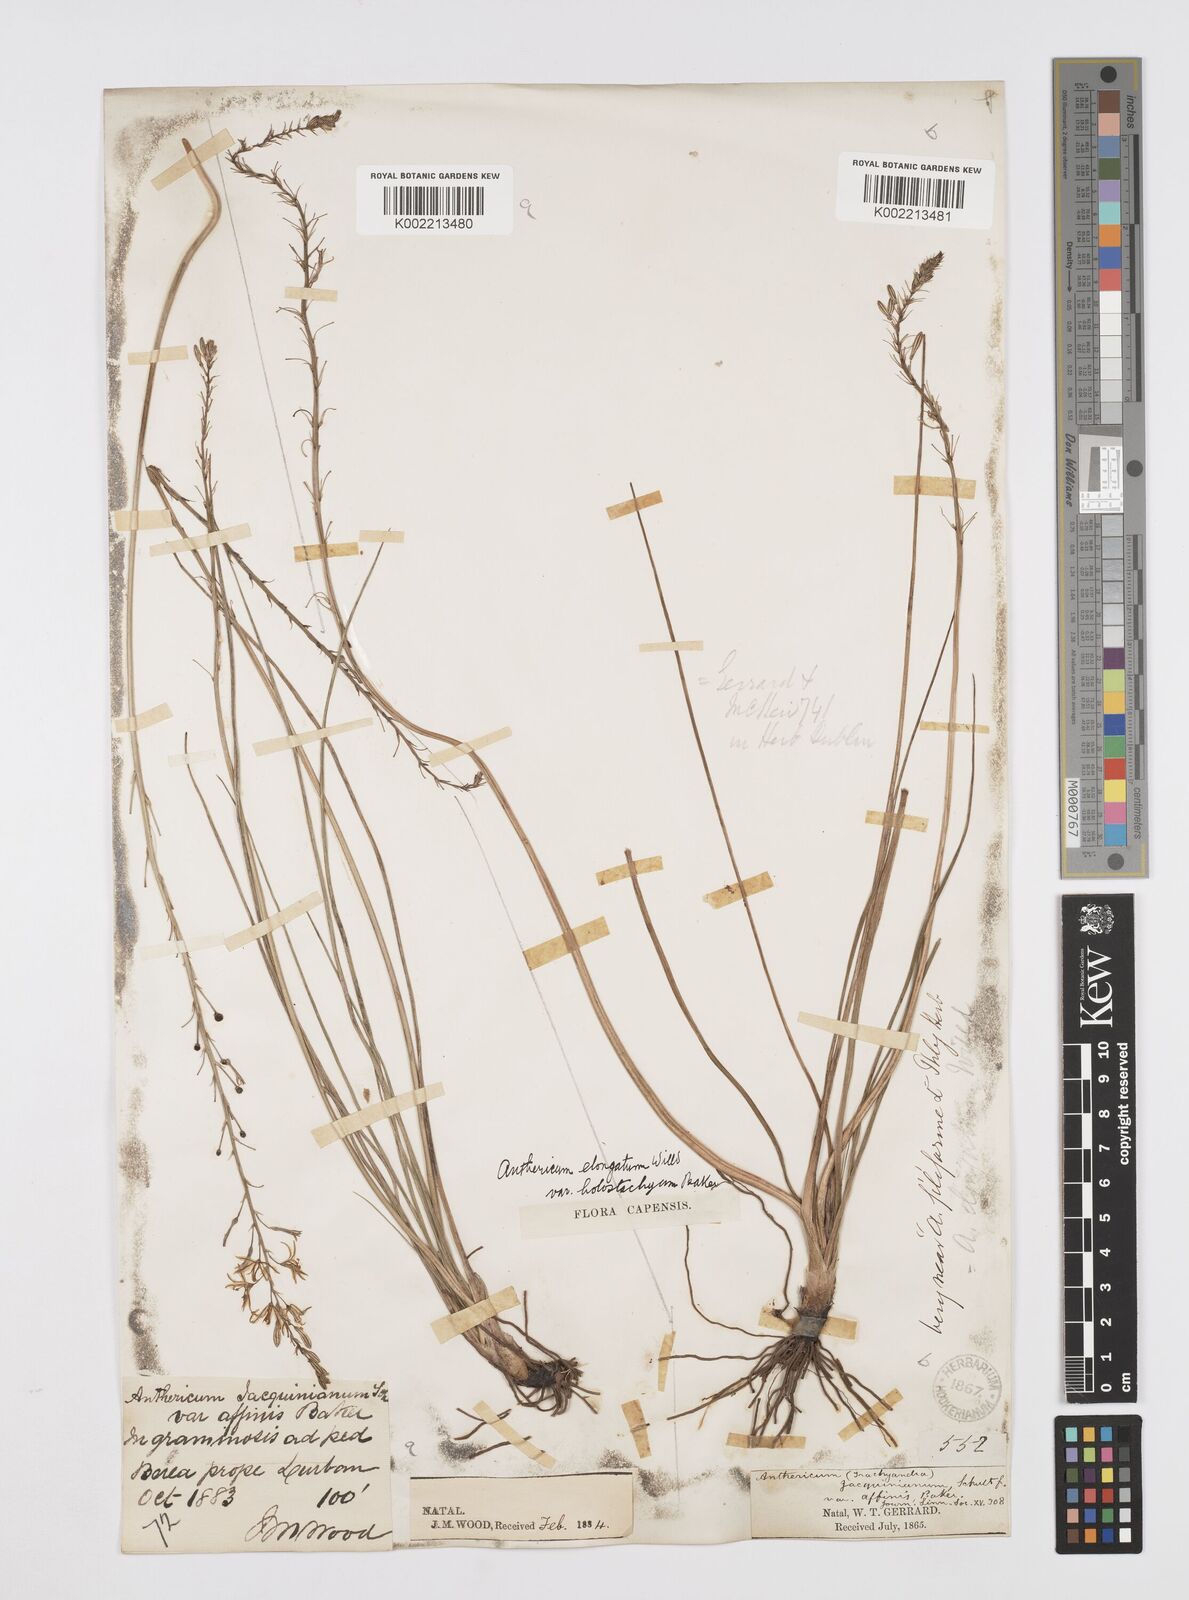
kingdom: Plantae
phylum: Tracheophyta
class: Liliopsida
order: Asparagales
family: Asphodelaceae
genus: Trachyandra
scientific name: Trachyandra saltii
